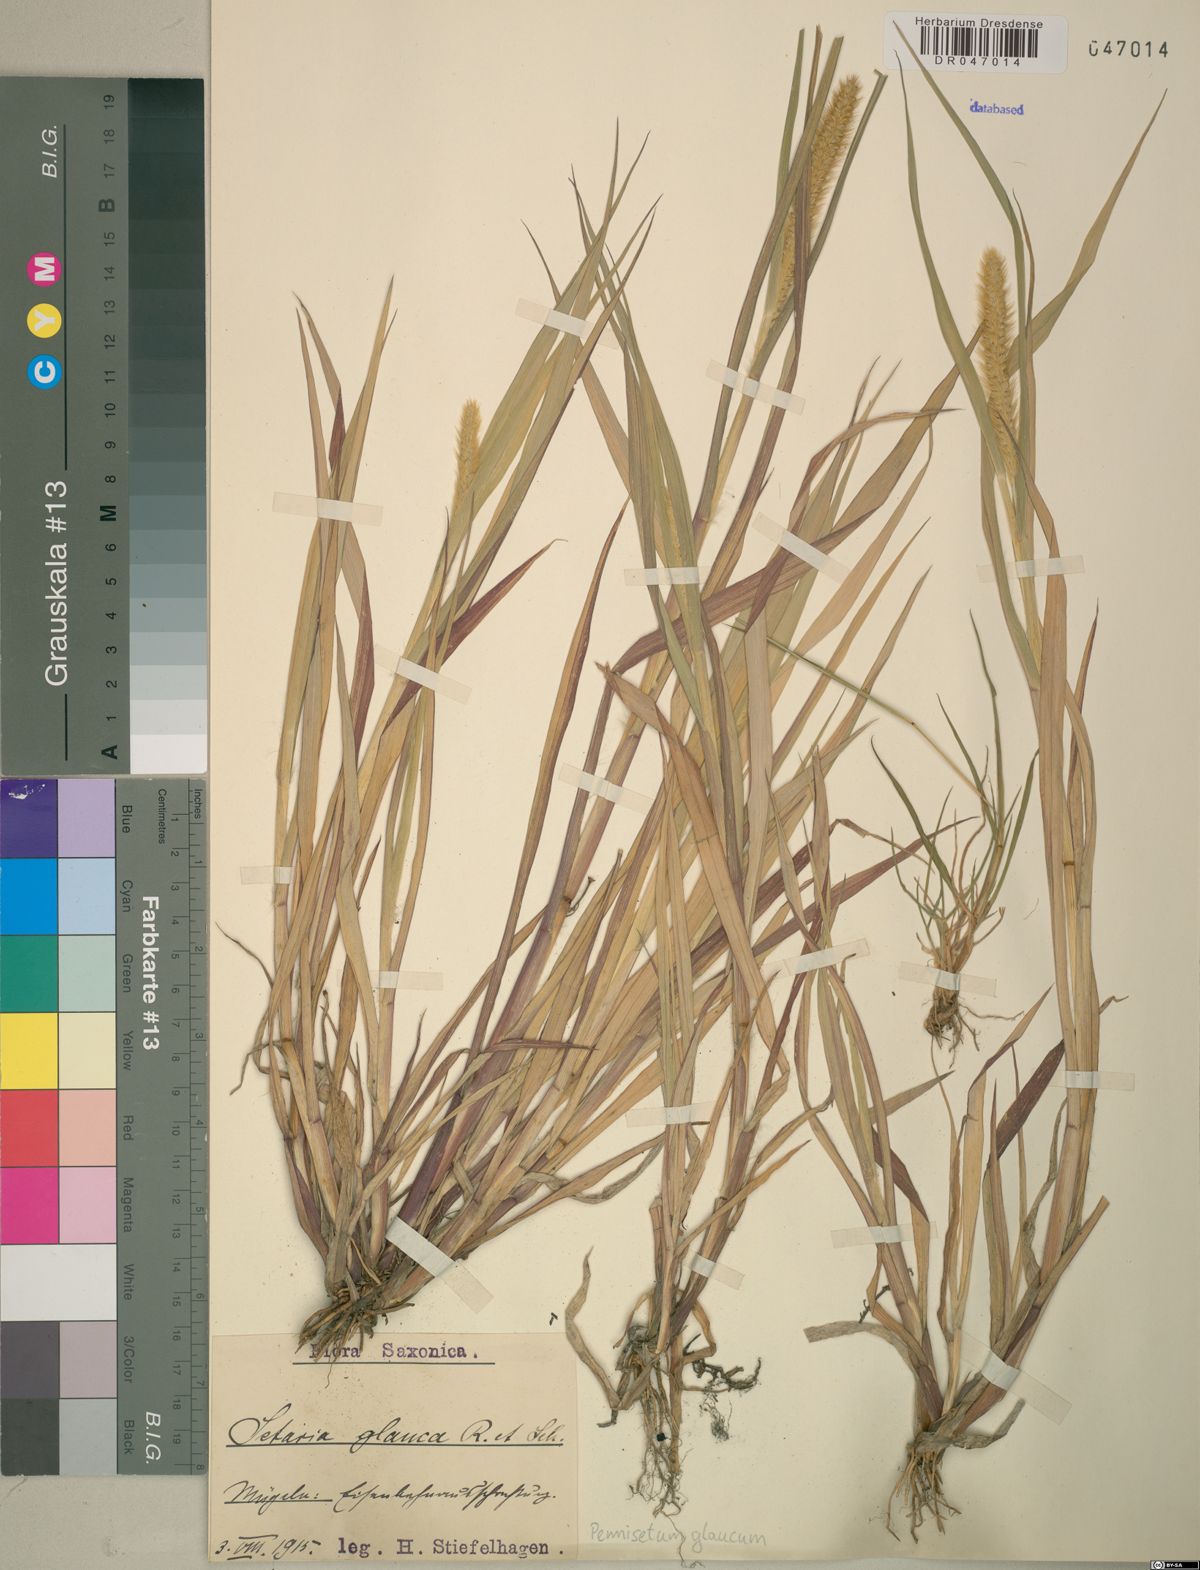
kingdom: Plantae
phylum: Tracheophyta
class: Liliopsida
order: Poales
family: Poaceae
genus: Cenchrus
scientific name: Cenchrus americanus
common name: Pearl millet
